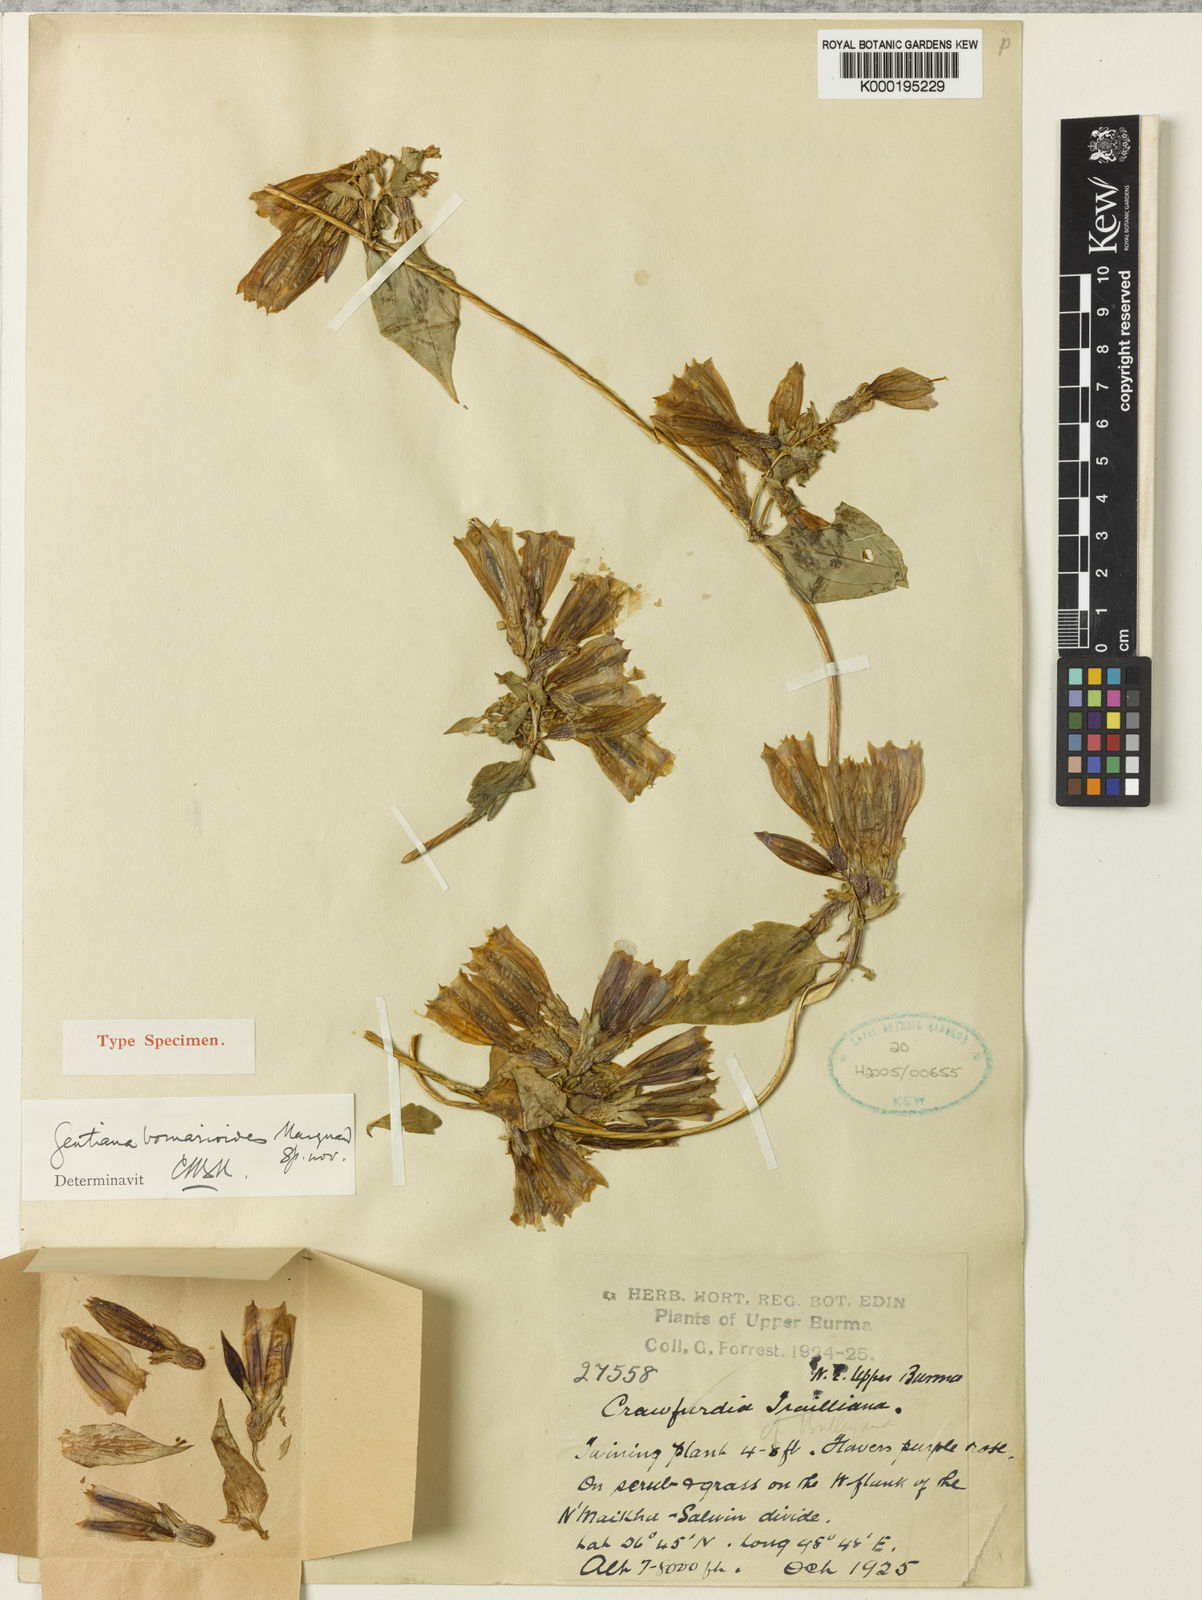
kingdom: Plantae
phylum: Tracheophyta
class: Magnoliopsida
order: Gentianales
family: Gentianaceae
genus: Crawfurdia
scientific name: Crawfurdia bomareoides
